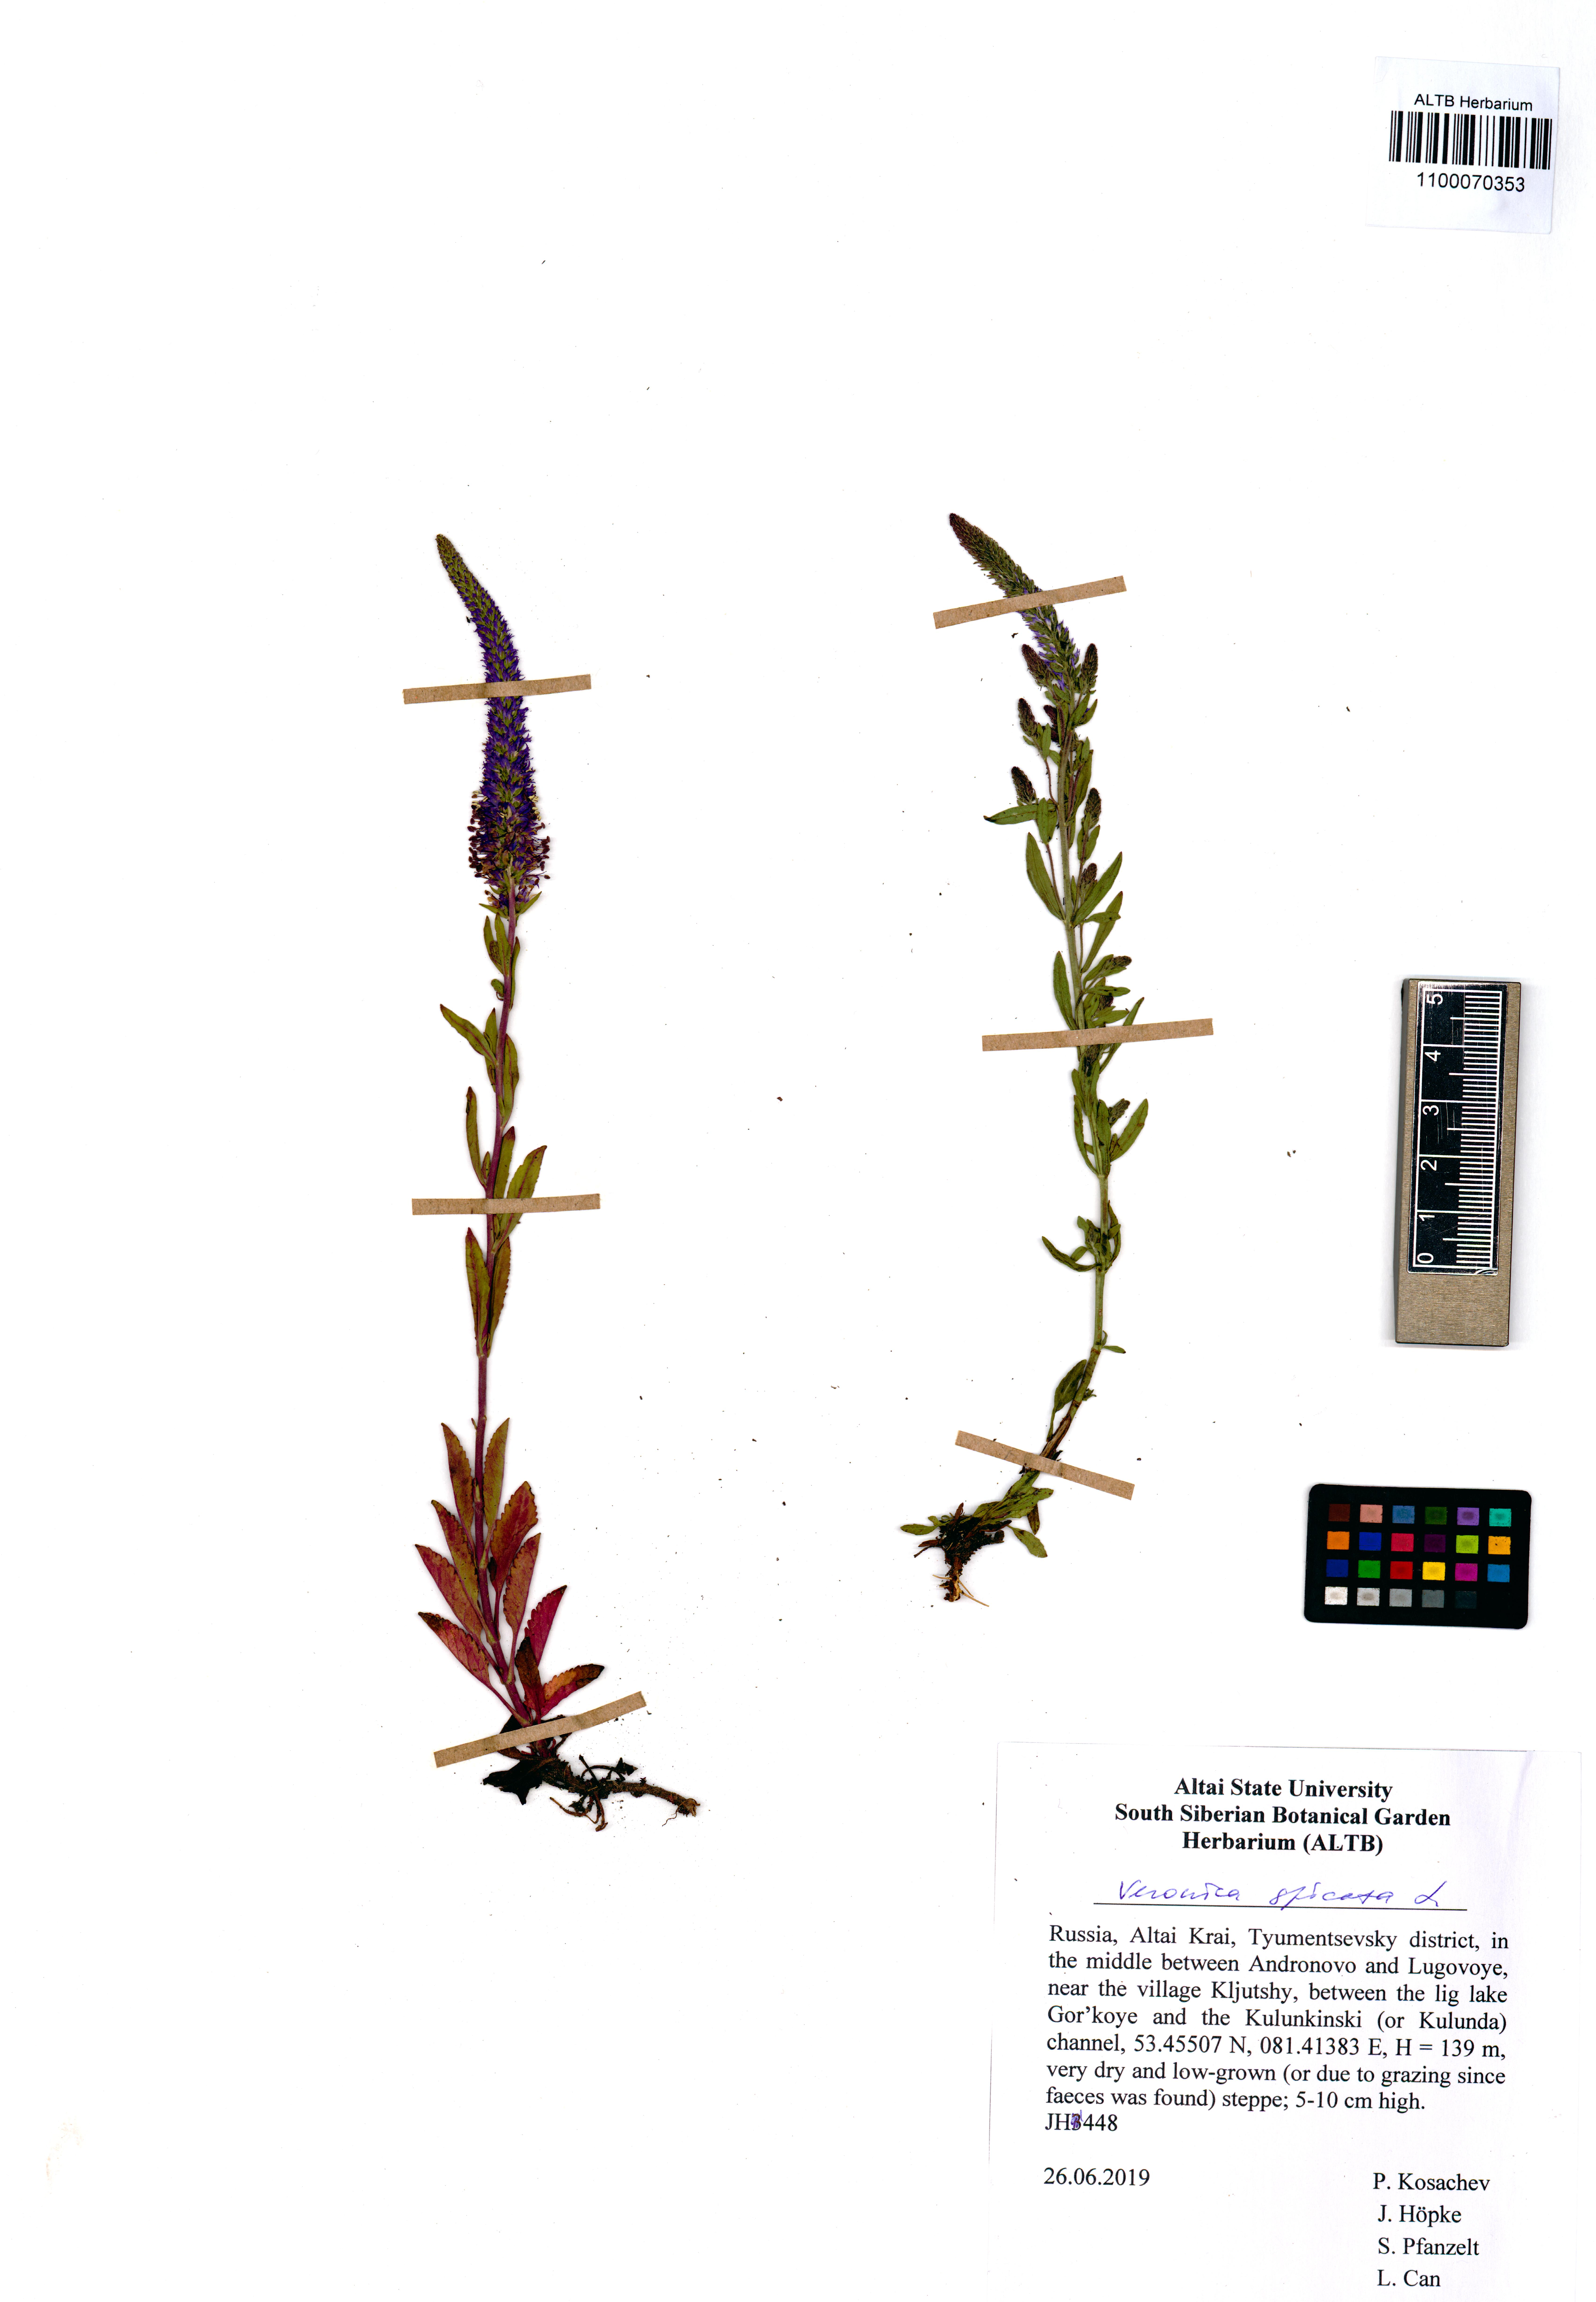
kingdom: Plantae
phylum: Tracheophyta
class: Magnoliopsida
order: Lamiales
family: Plantaginaceae
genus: Veronica
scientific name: Veronica spicata
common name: Spiked speedwell
